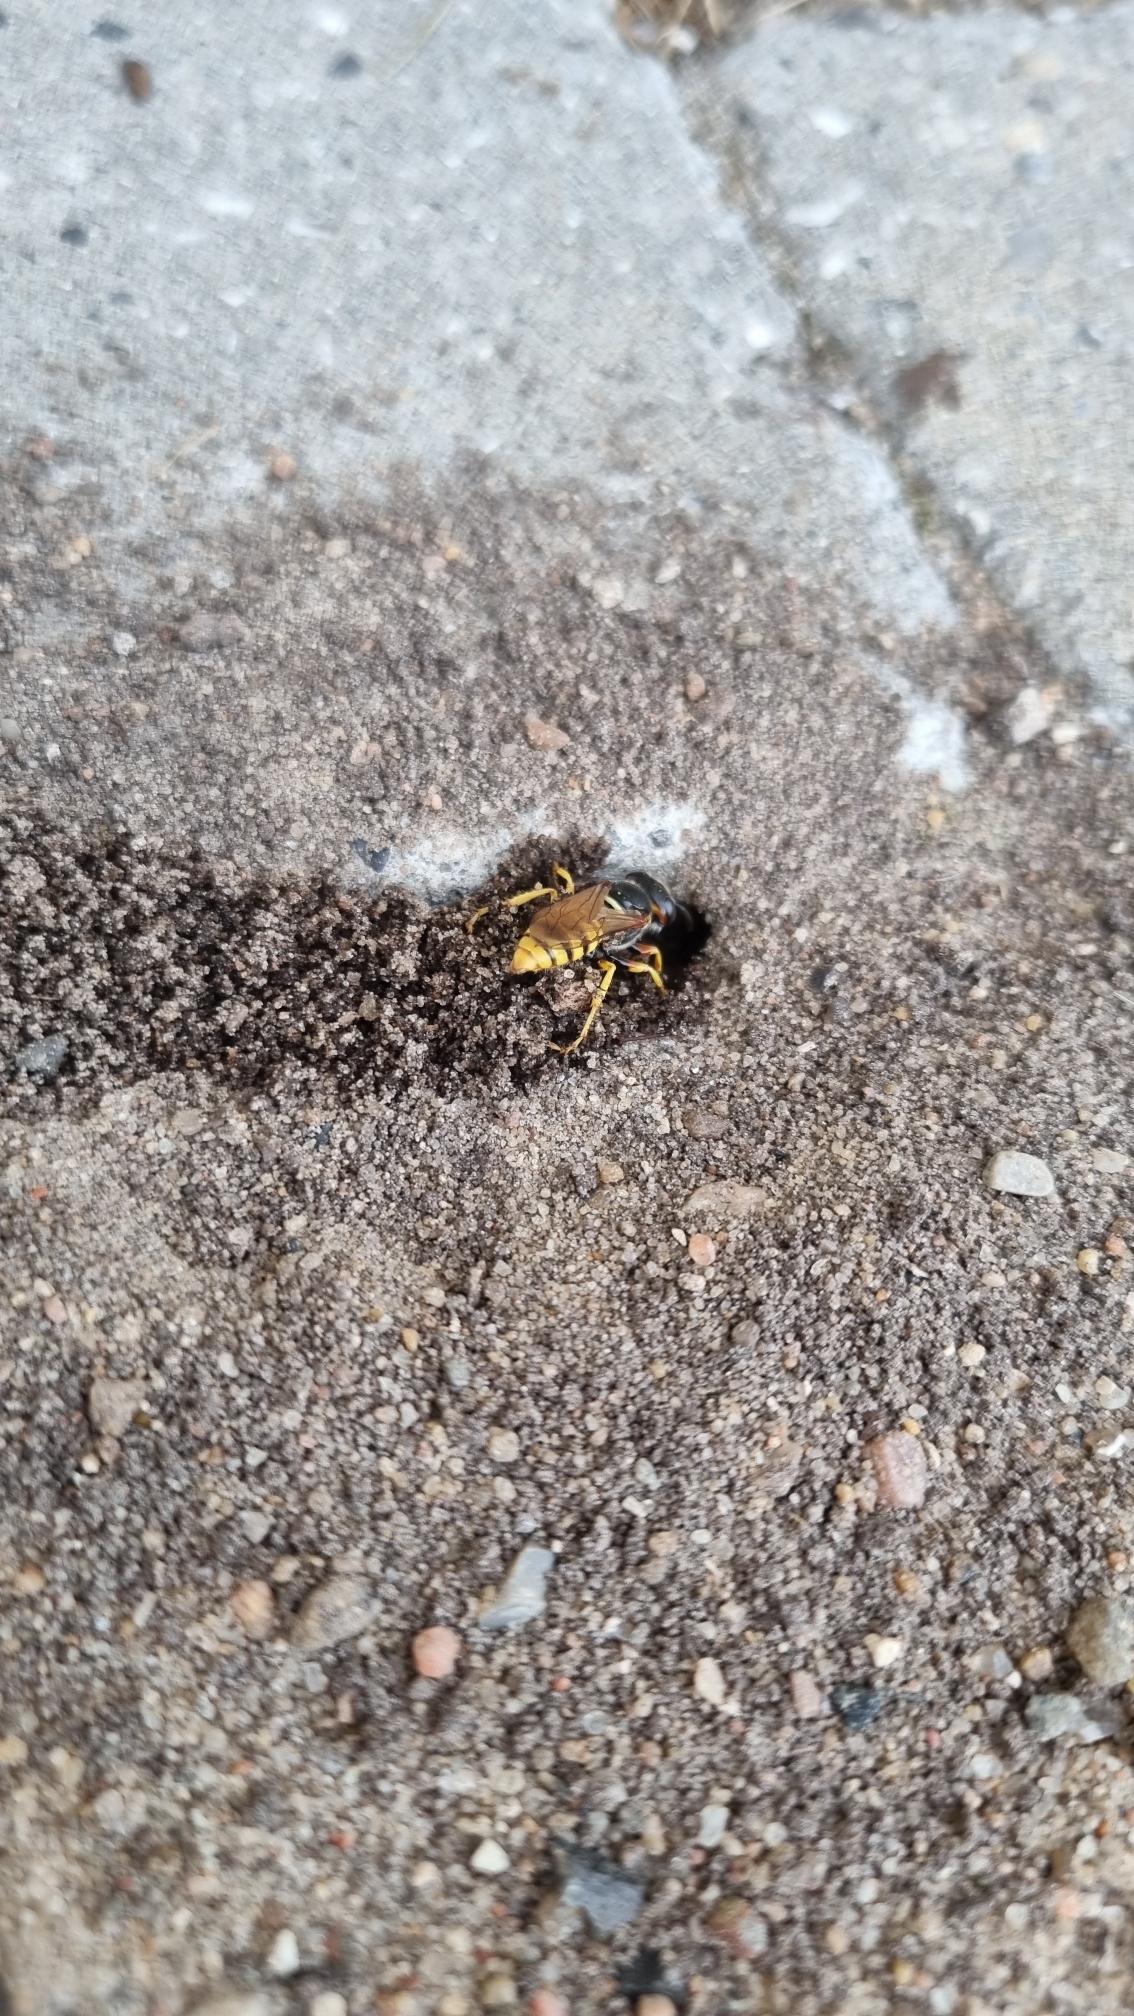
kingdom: Animalia
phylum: Arthropoda
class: Insecta
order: Hymenoptera
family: Crabronidae
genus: Philanthus
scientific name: Philanthus triangulum
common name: Biulv
